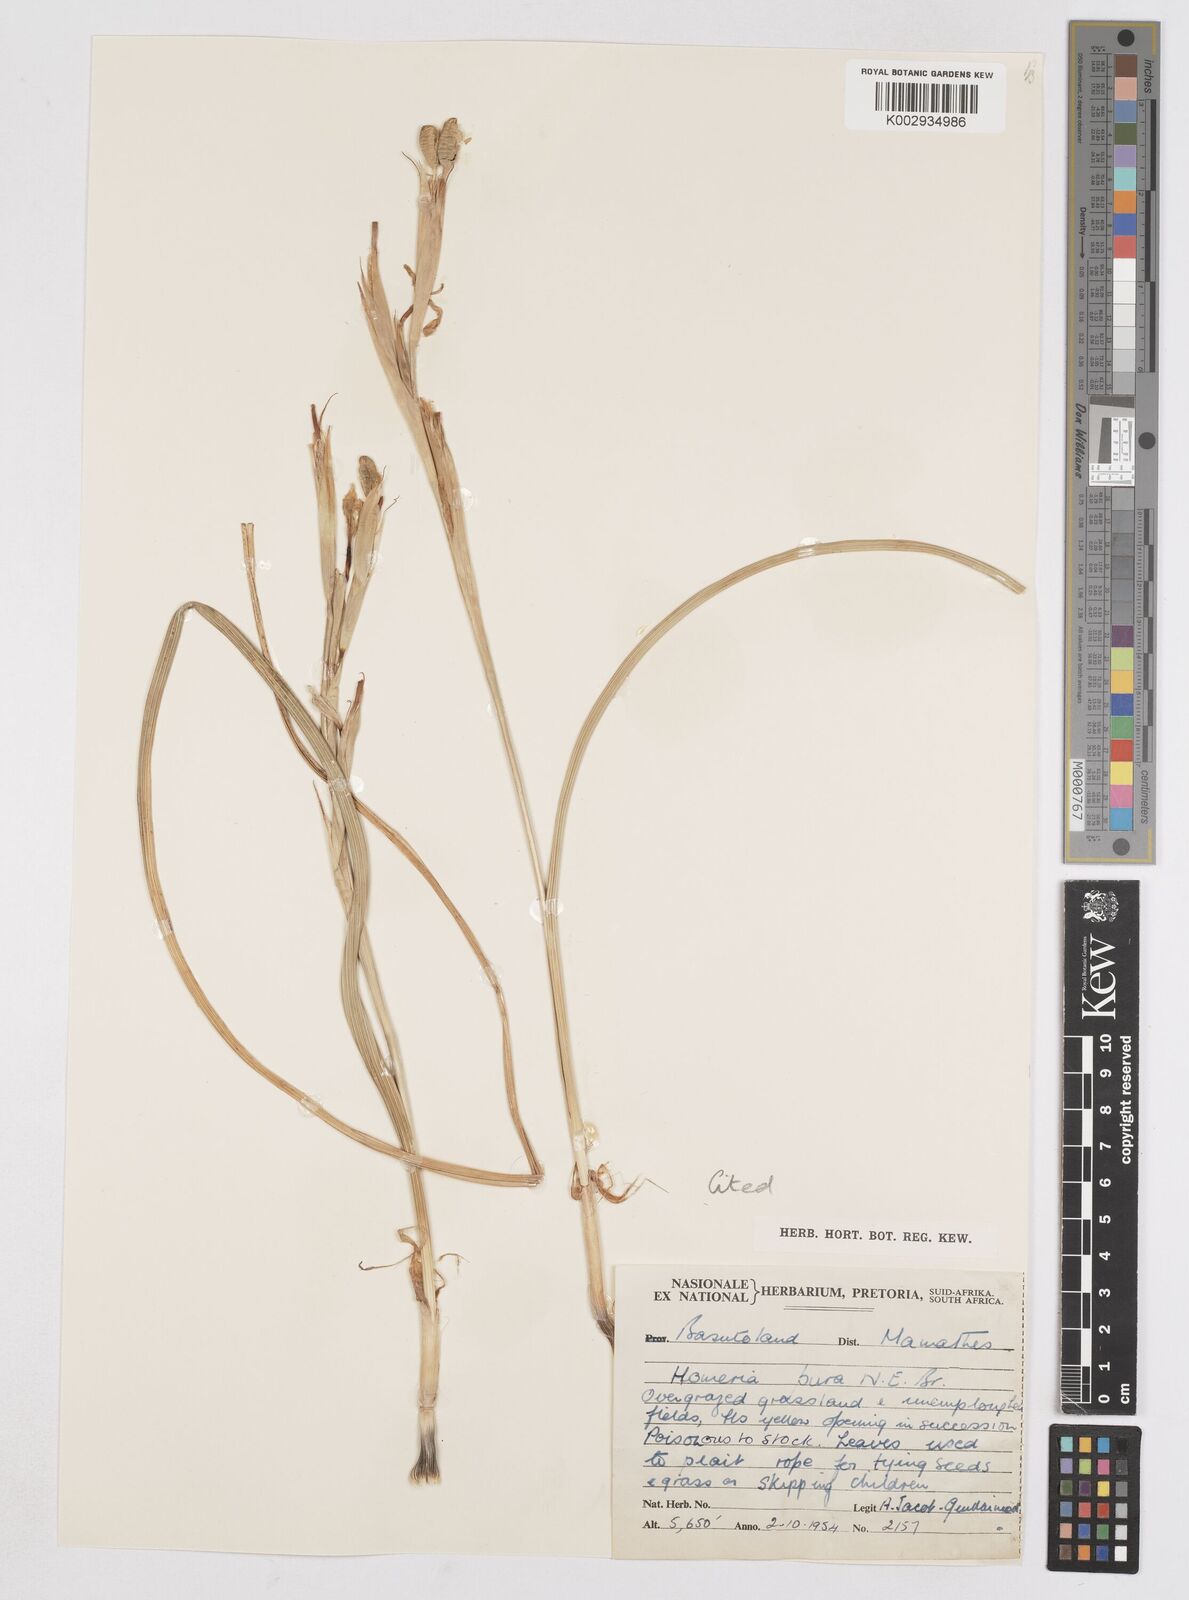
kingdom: Plantae
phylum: Tracheophyta
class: Liliopsida
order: Asparagales
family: Iridaceae
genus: Moraea
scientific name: Moraea pallida
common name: Yellow tulp
